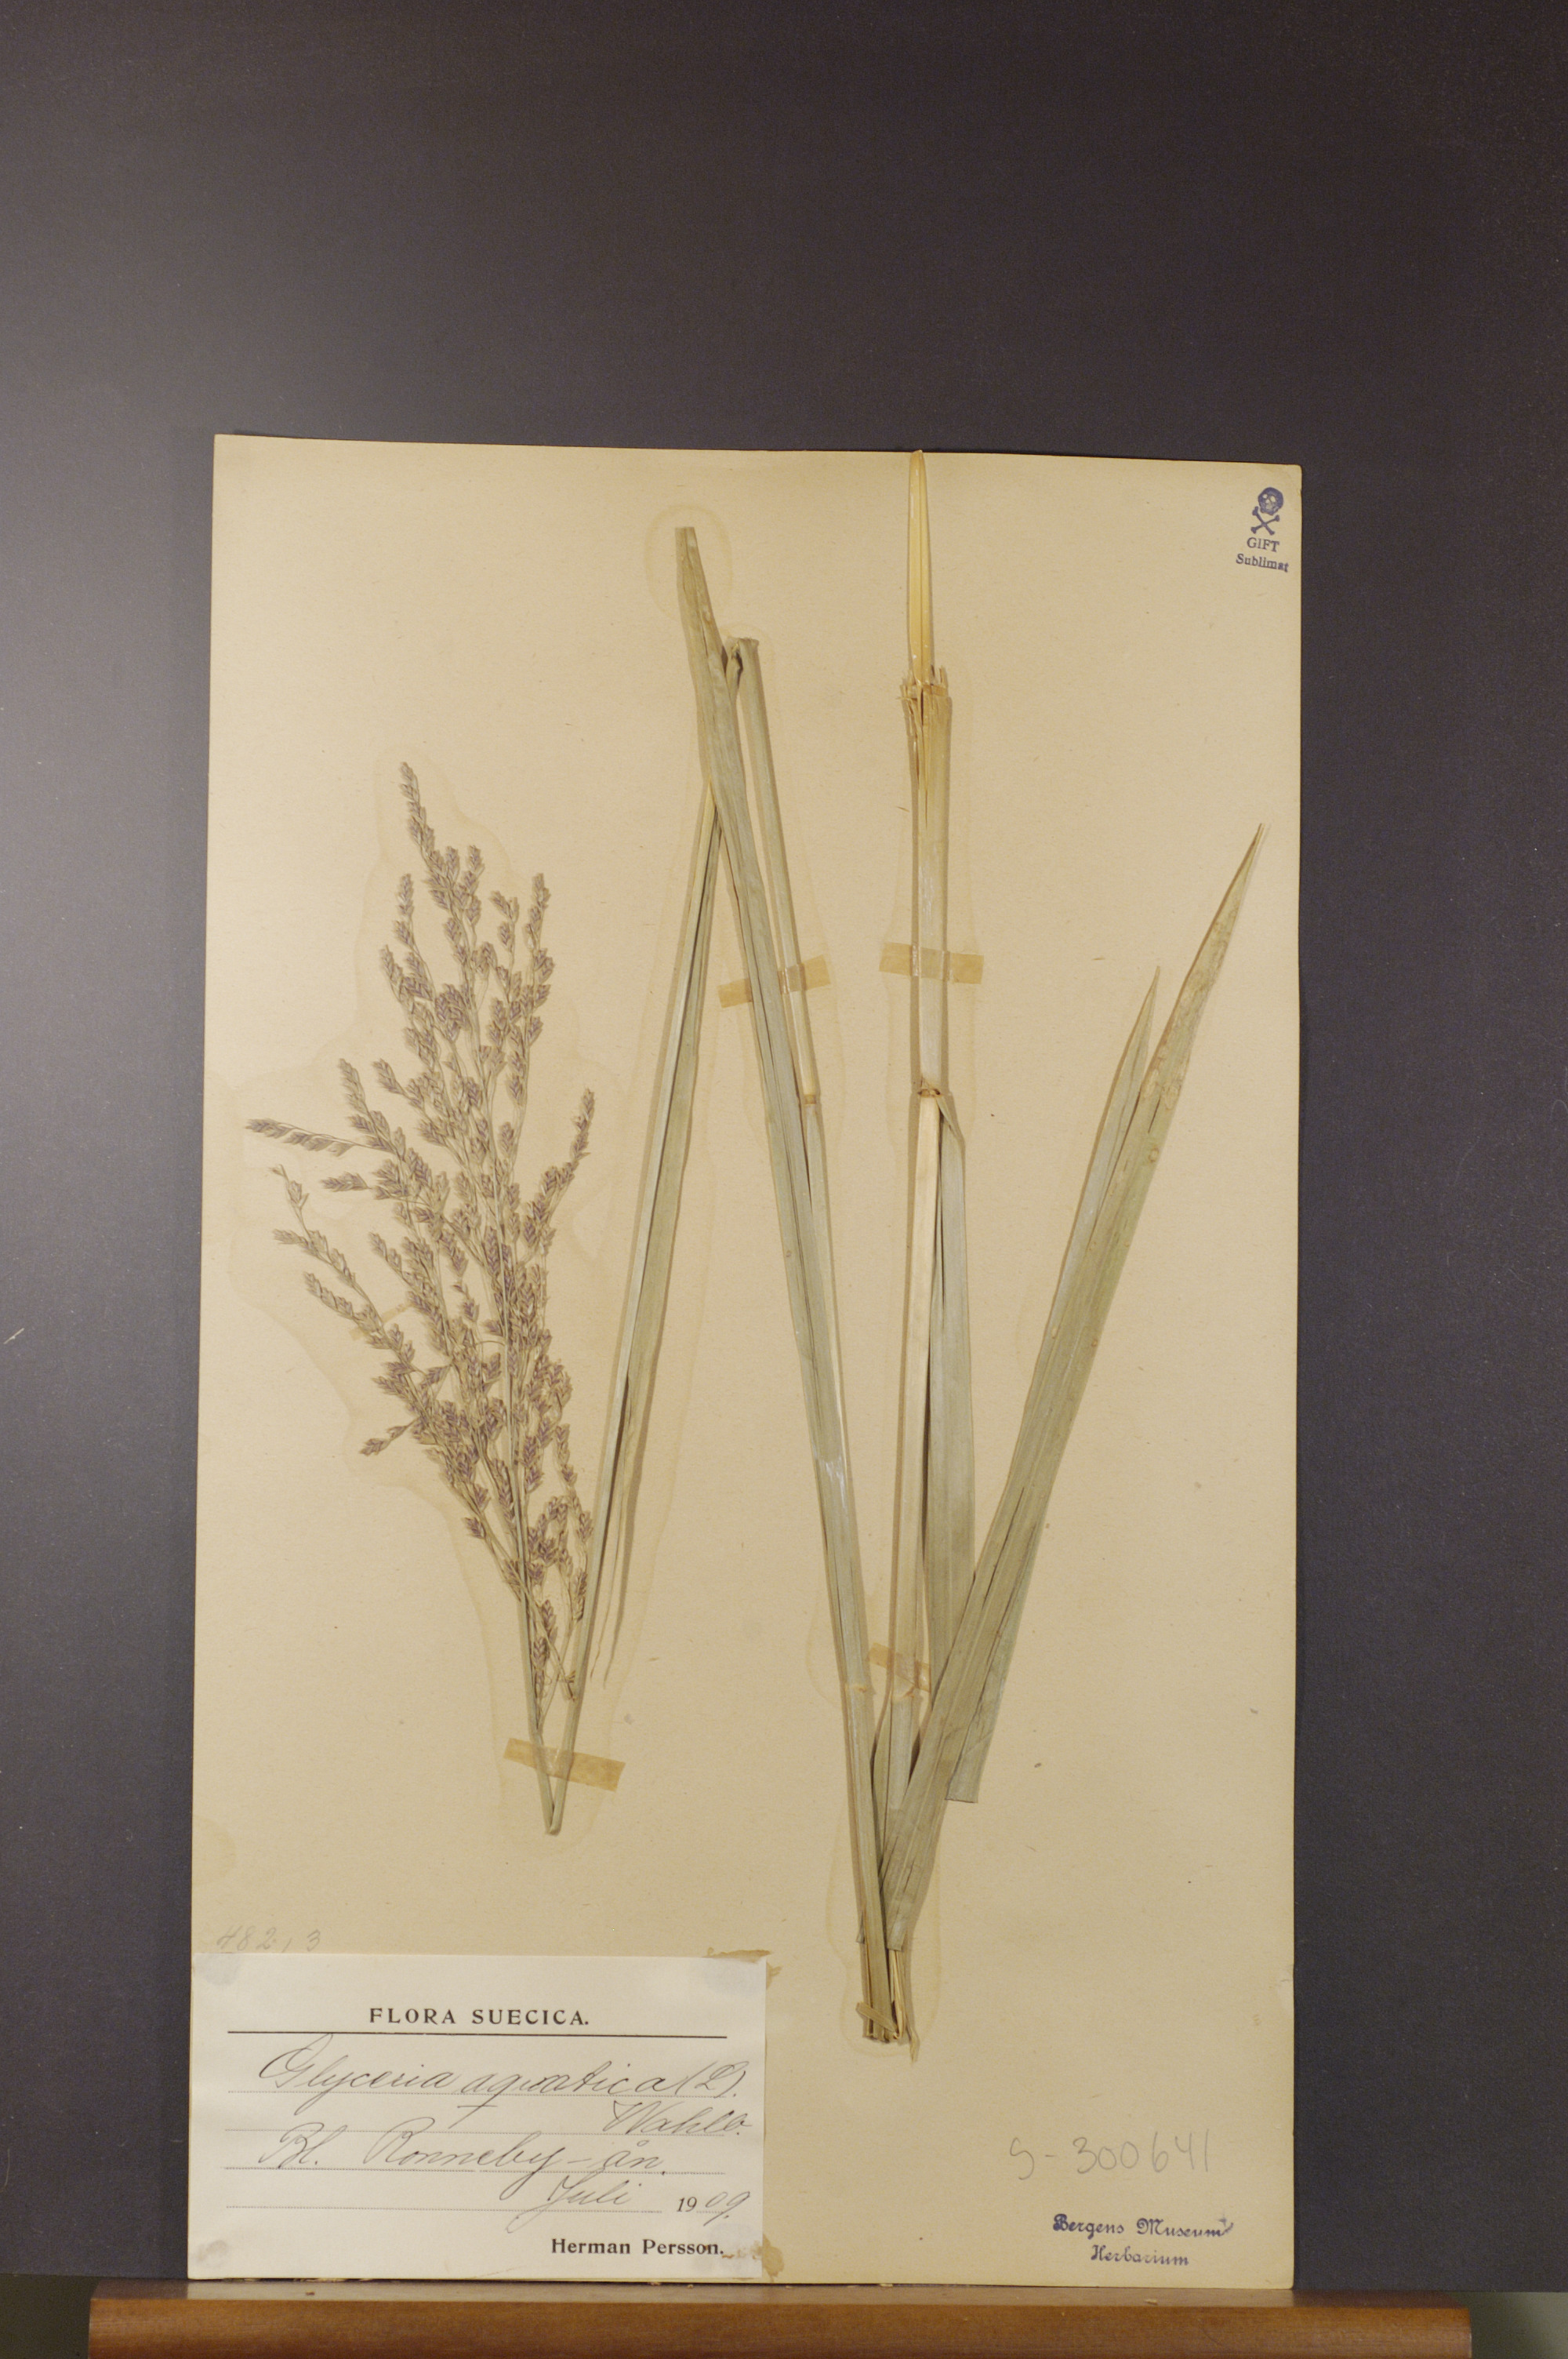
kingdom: Plantae
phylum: Tracheophyta
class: Liliopsida
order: Poales
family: Poaceae
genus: Glyceria
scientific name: Glyceria maxima
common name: Reed mannagrass
